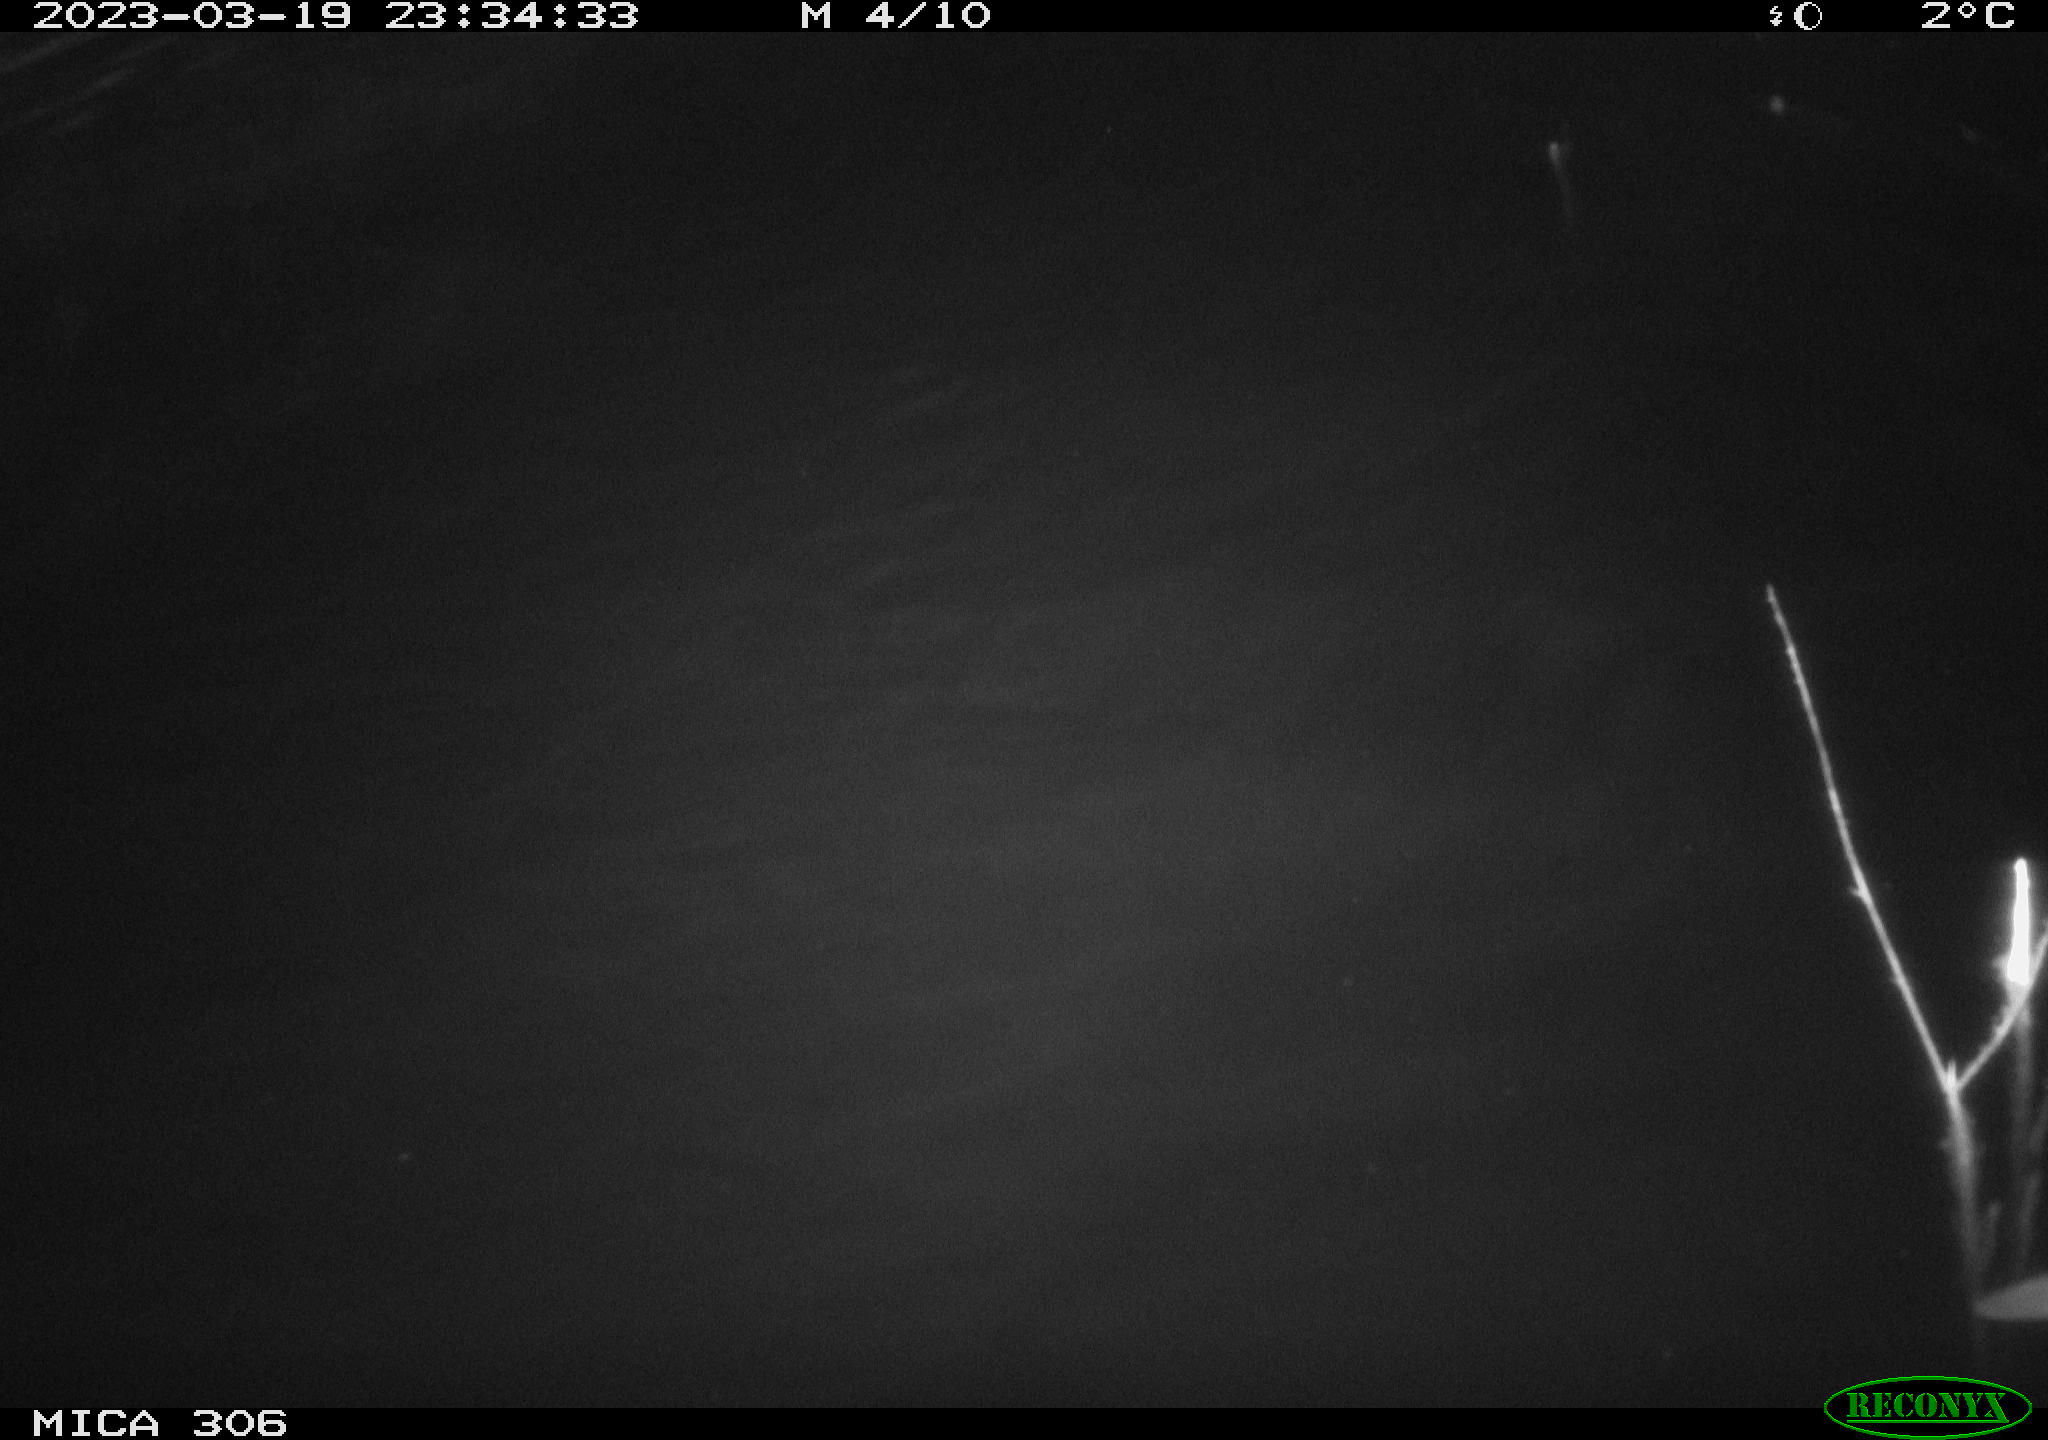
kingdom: Animalia
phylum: Chordata
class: Mammalia
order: Rodentia
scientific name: Rodentia
